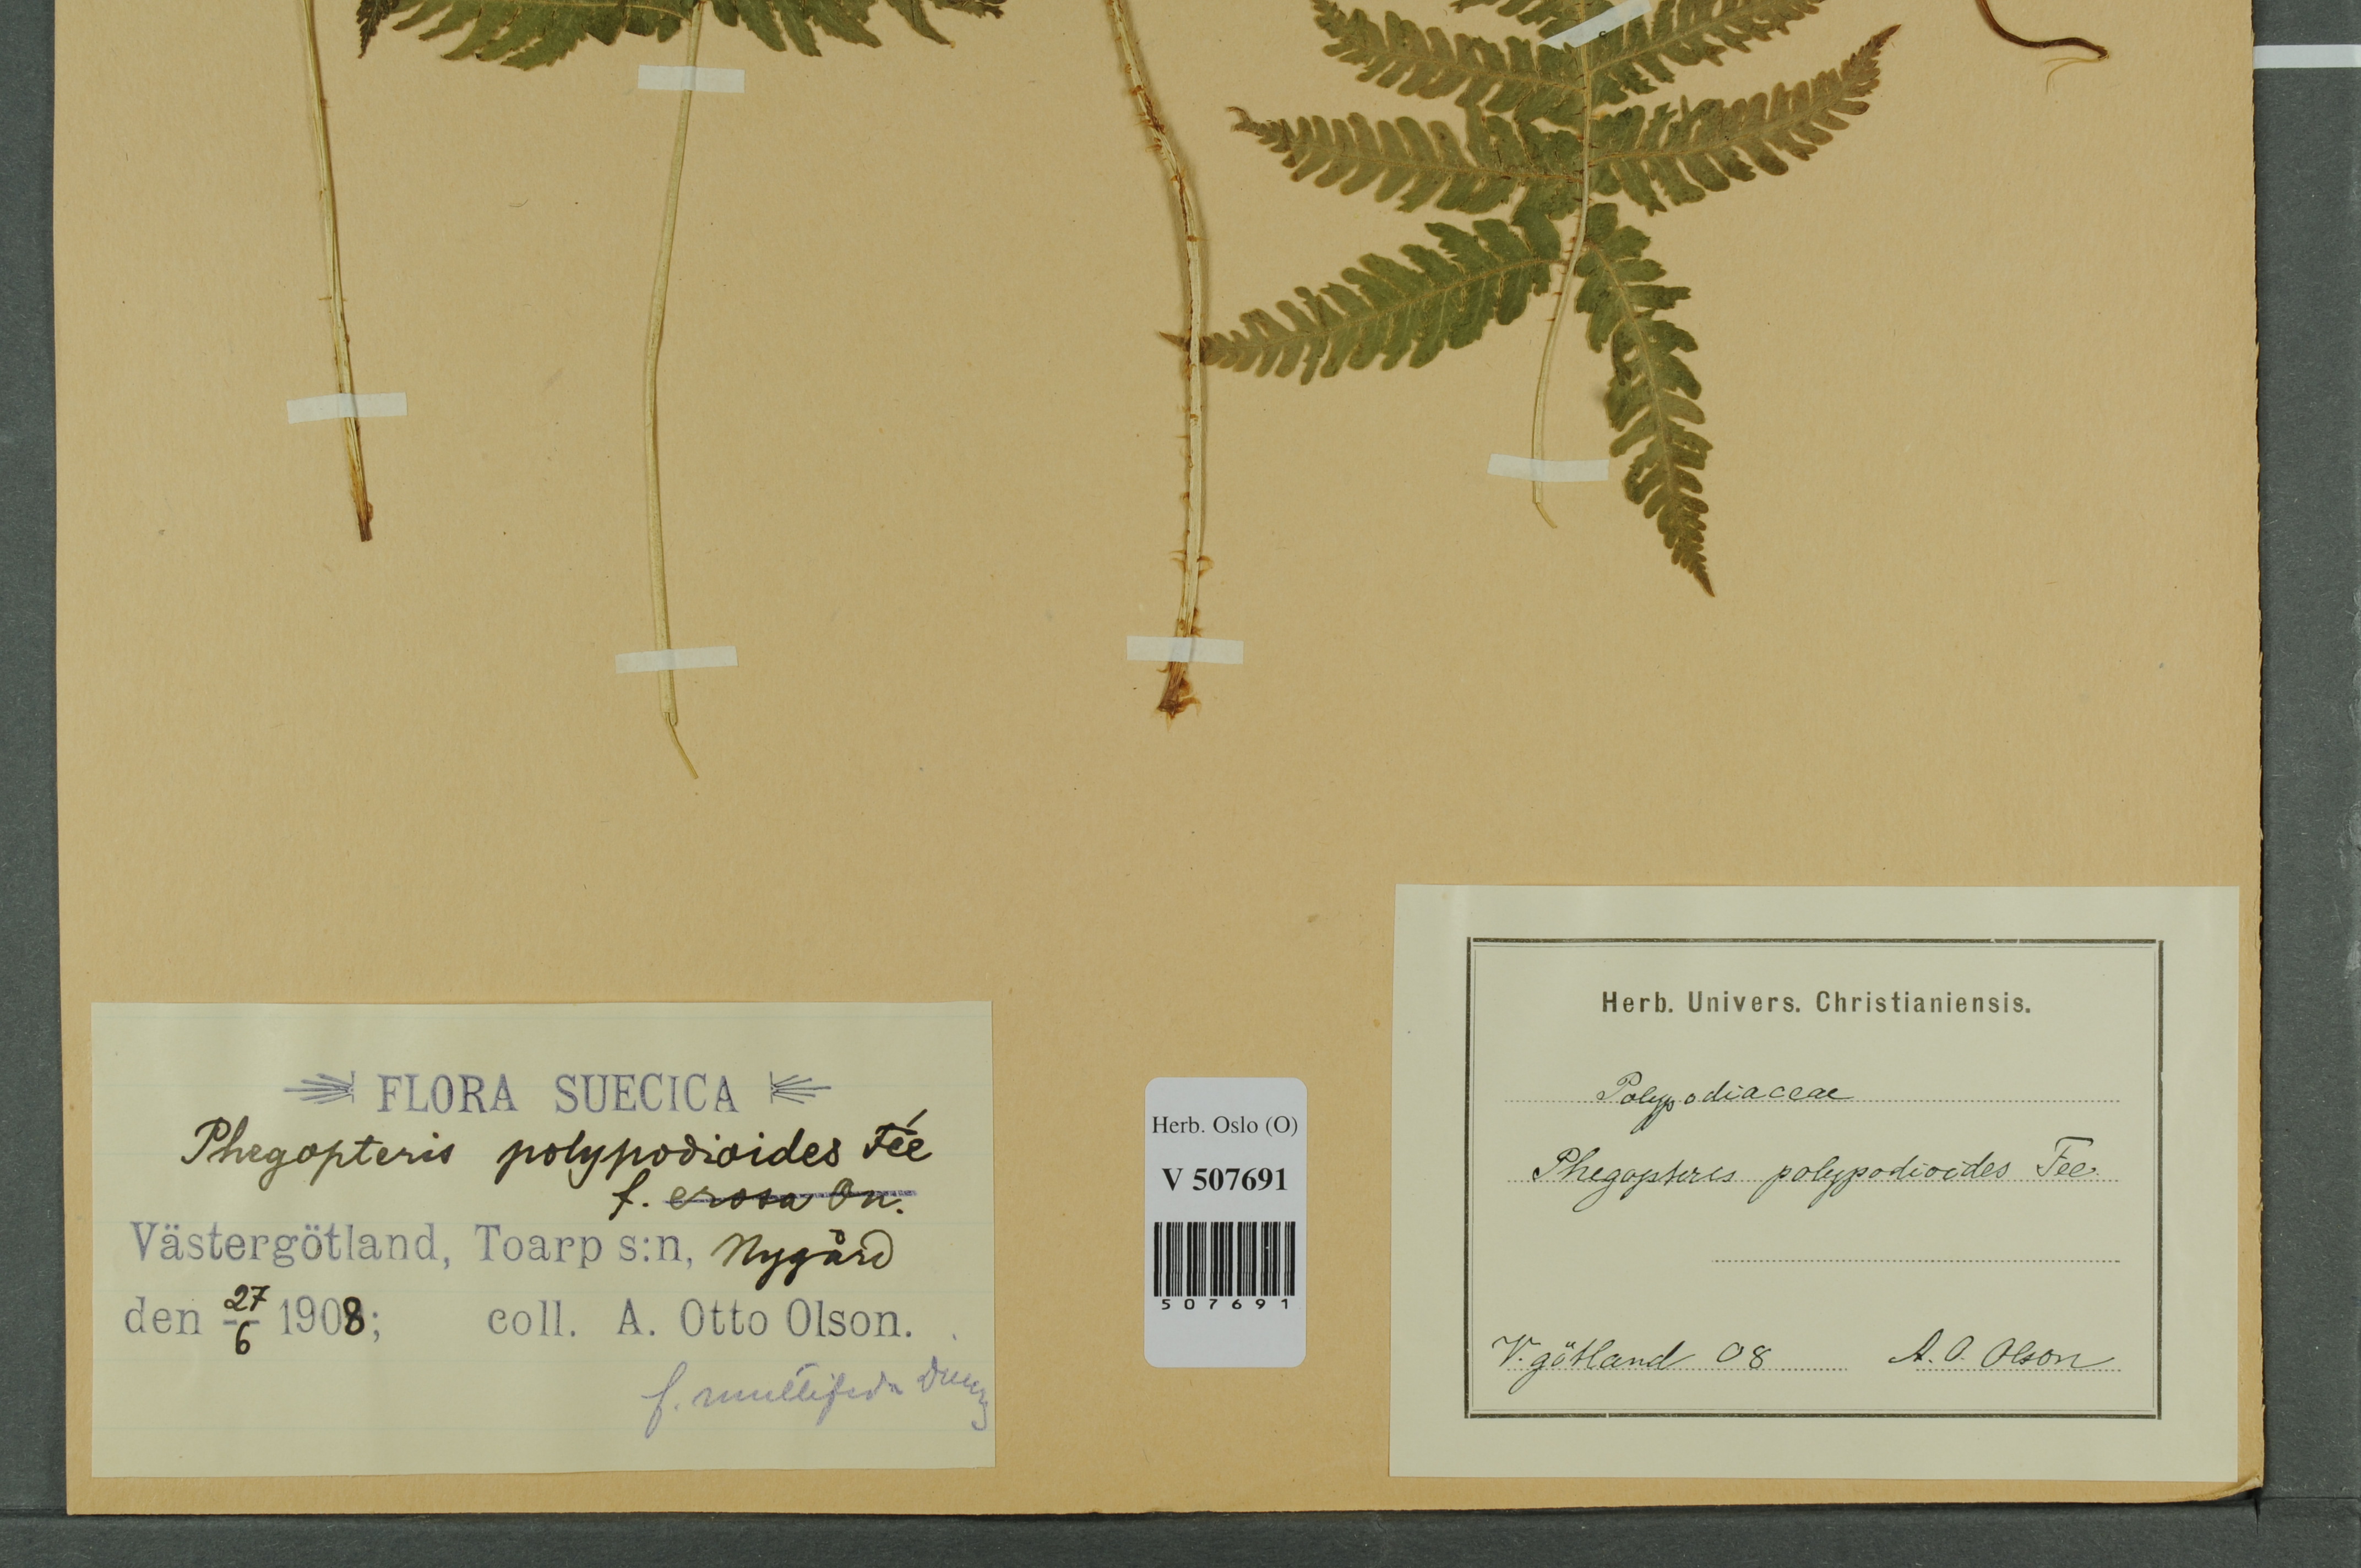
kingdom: Plantae
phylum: Tracheophyta
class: Polypodiopsida
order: Polypodiales
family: Thelypteridaceae
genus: Phegopteris
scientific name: Phegopteris connectilis
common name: Beech fern
